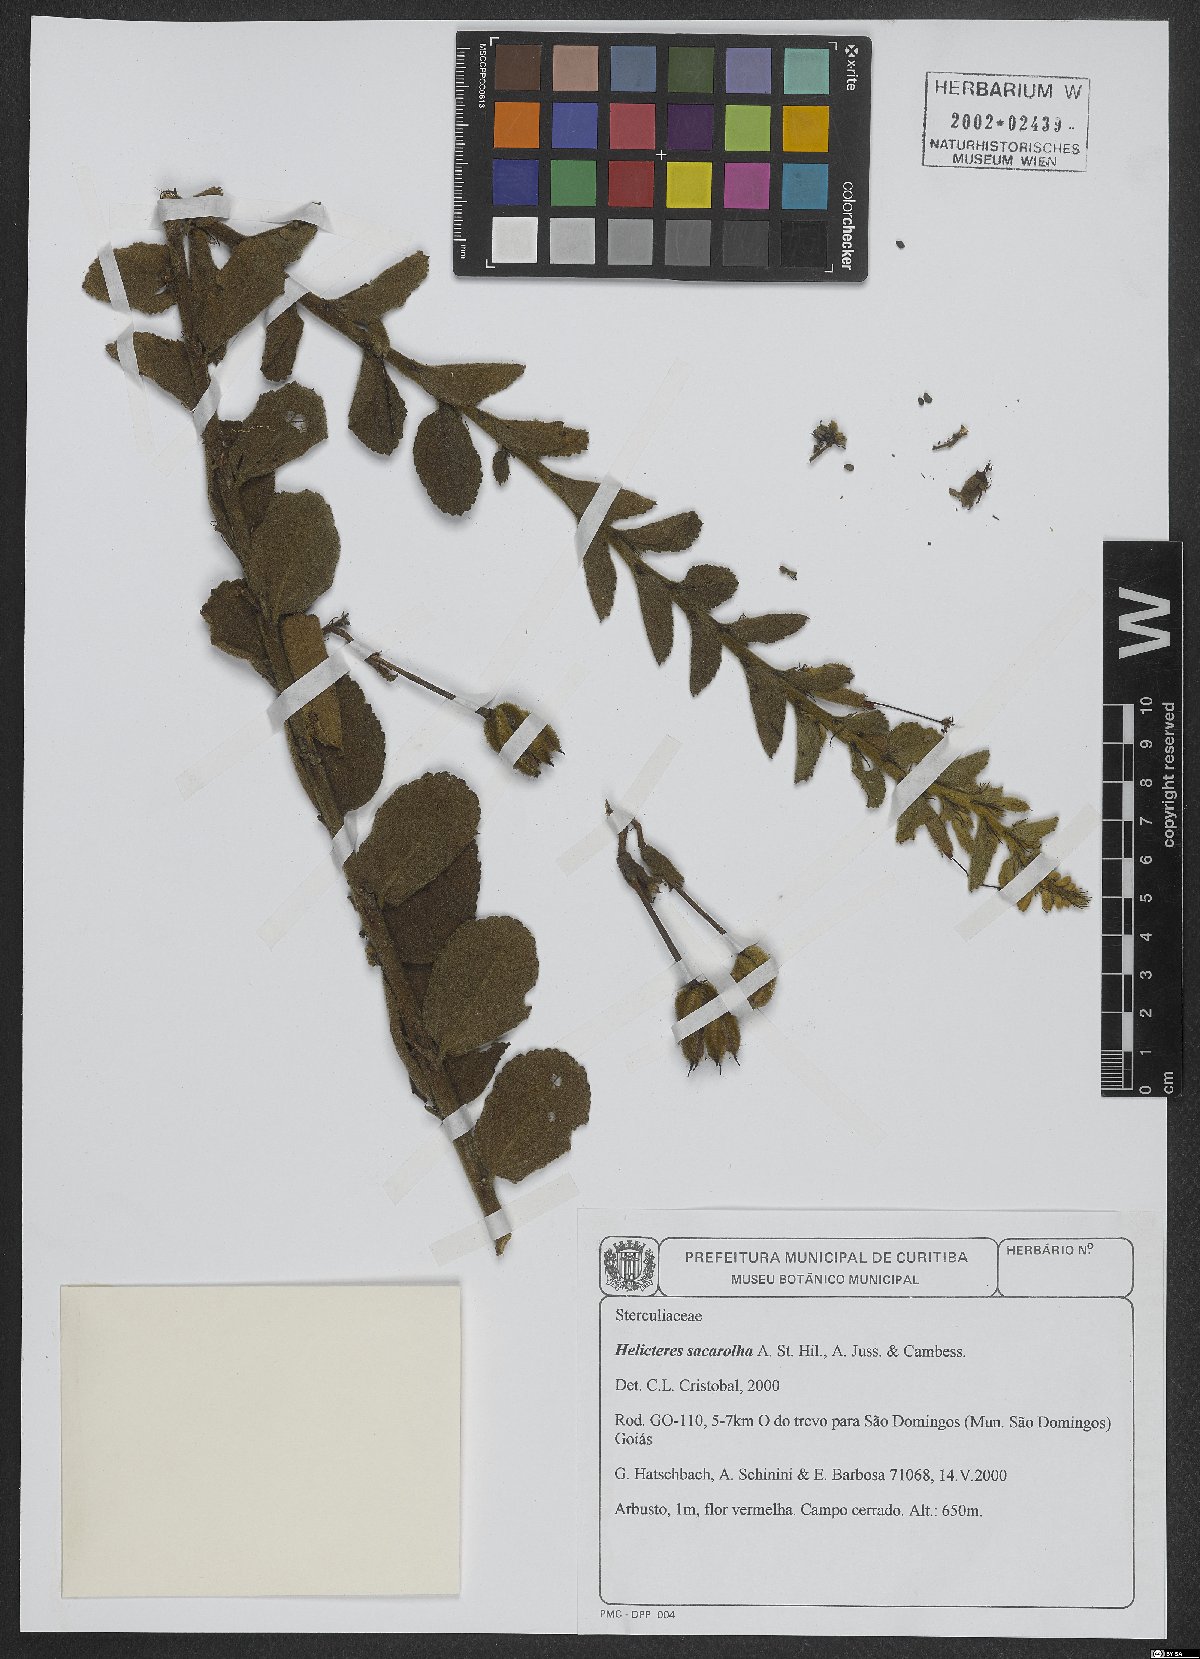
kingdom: Plantae
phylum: Tracheophyta
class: Magnoliopsida
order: Malvales
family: Malvaceae
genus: Helicteres
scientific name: Helicteres sacarolha
